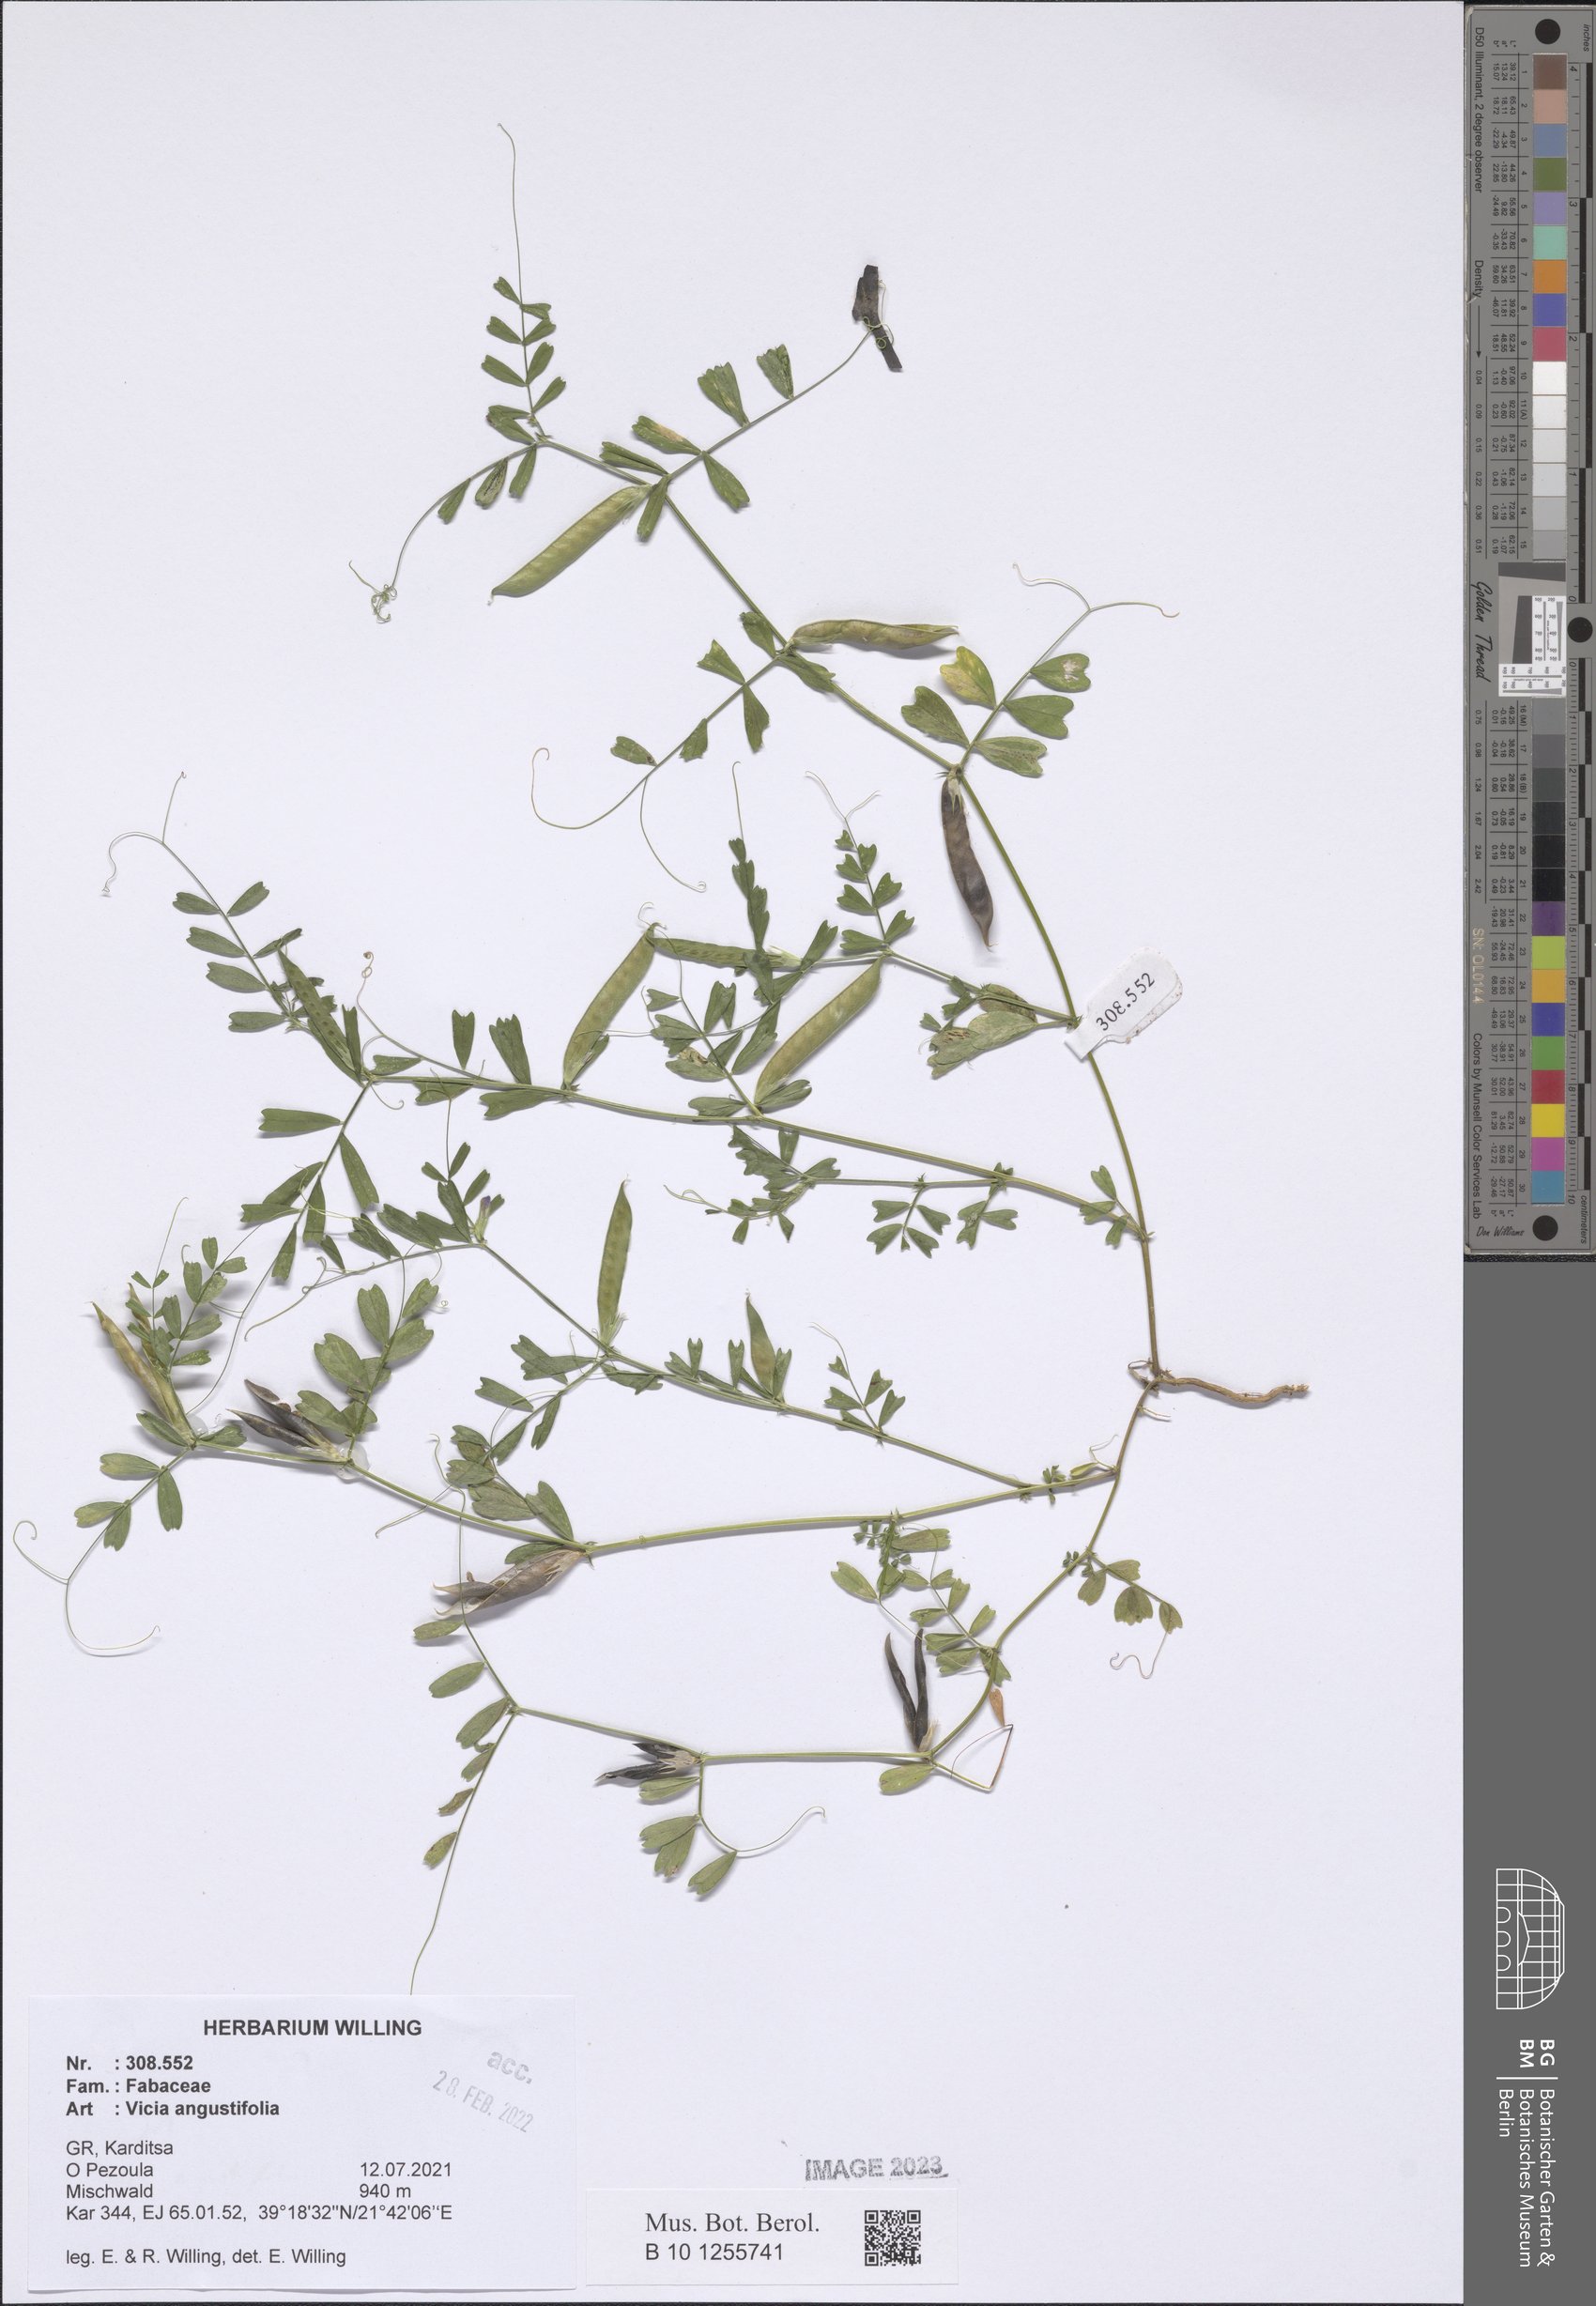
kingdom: Plantae
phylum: Tracheophyta
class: Magnoliopsida
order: Fabales
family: Fabaceae
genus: Vicia
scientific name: Vicia sativa
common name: Garden vetch
